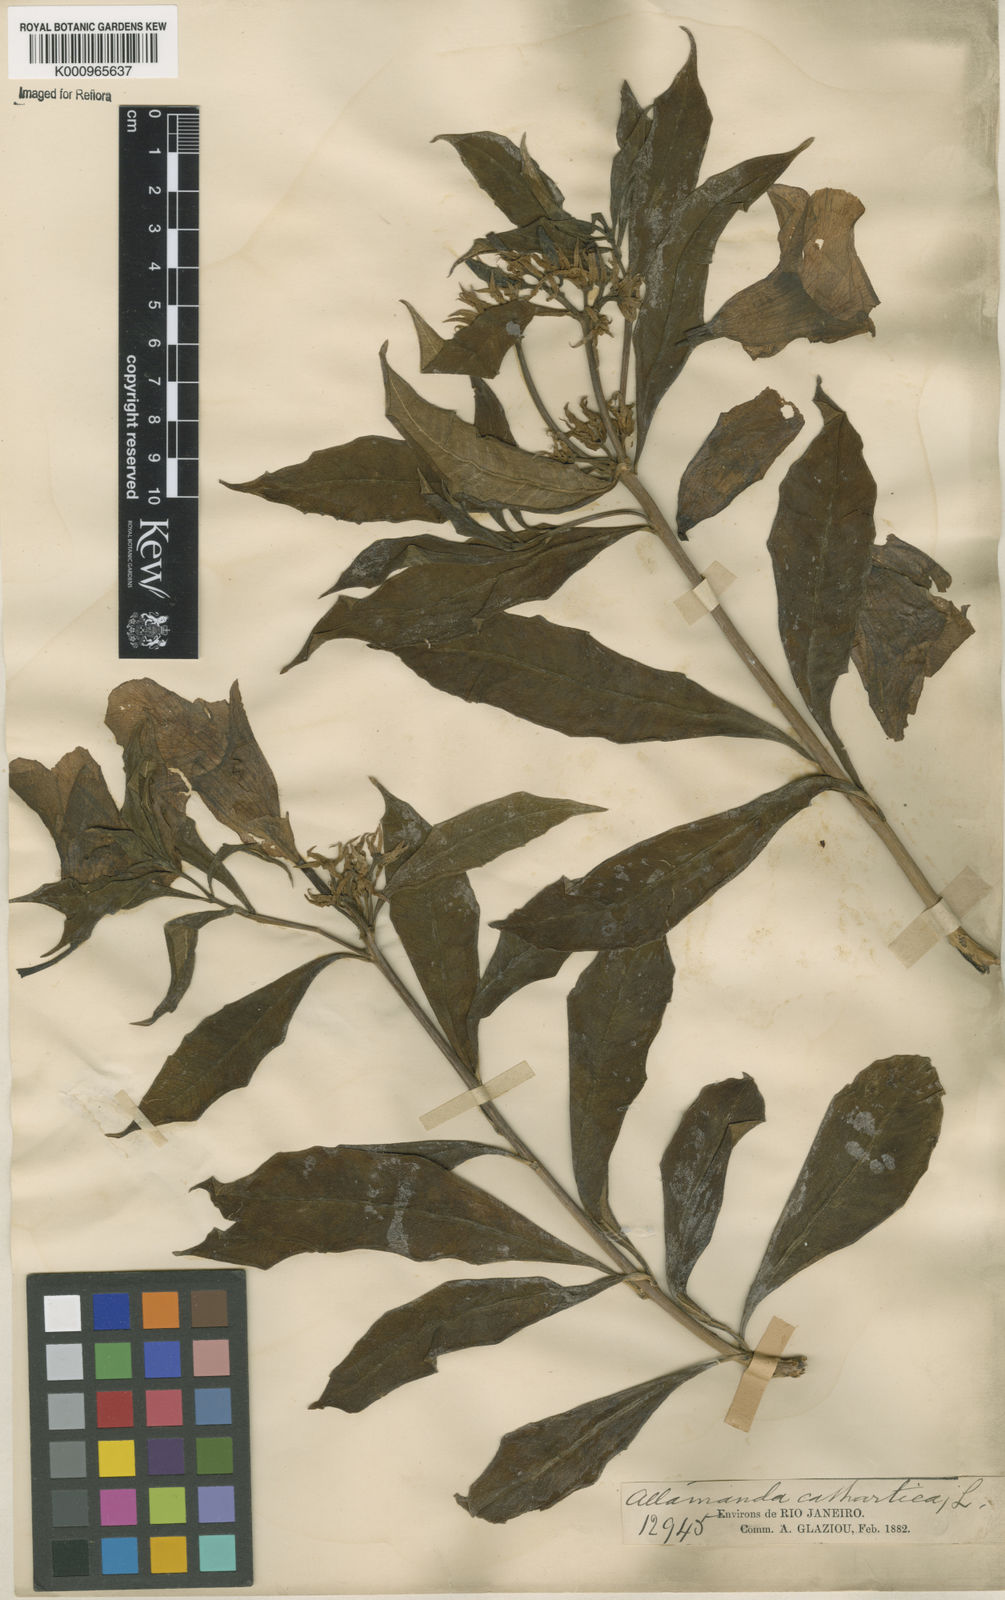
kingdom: Plantae
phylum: Tracheophyta
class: Magnoliopsida
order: Gentianales
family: Apocynaceae
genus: Allamanda
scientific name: Allamanda cathartica
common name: Golden trumpet
